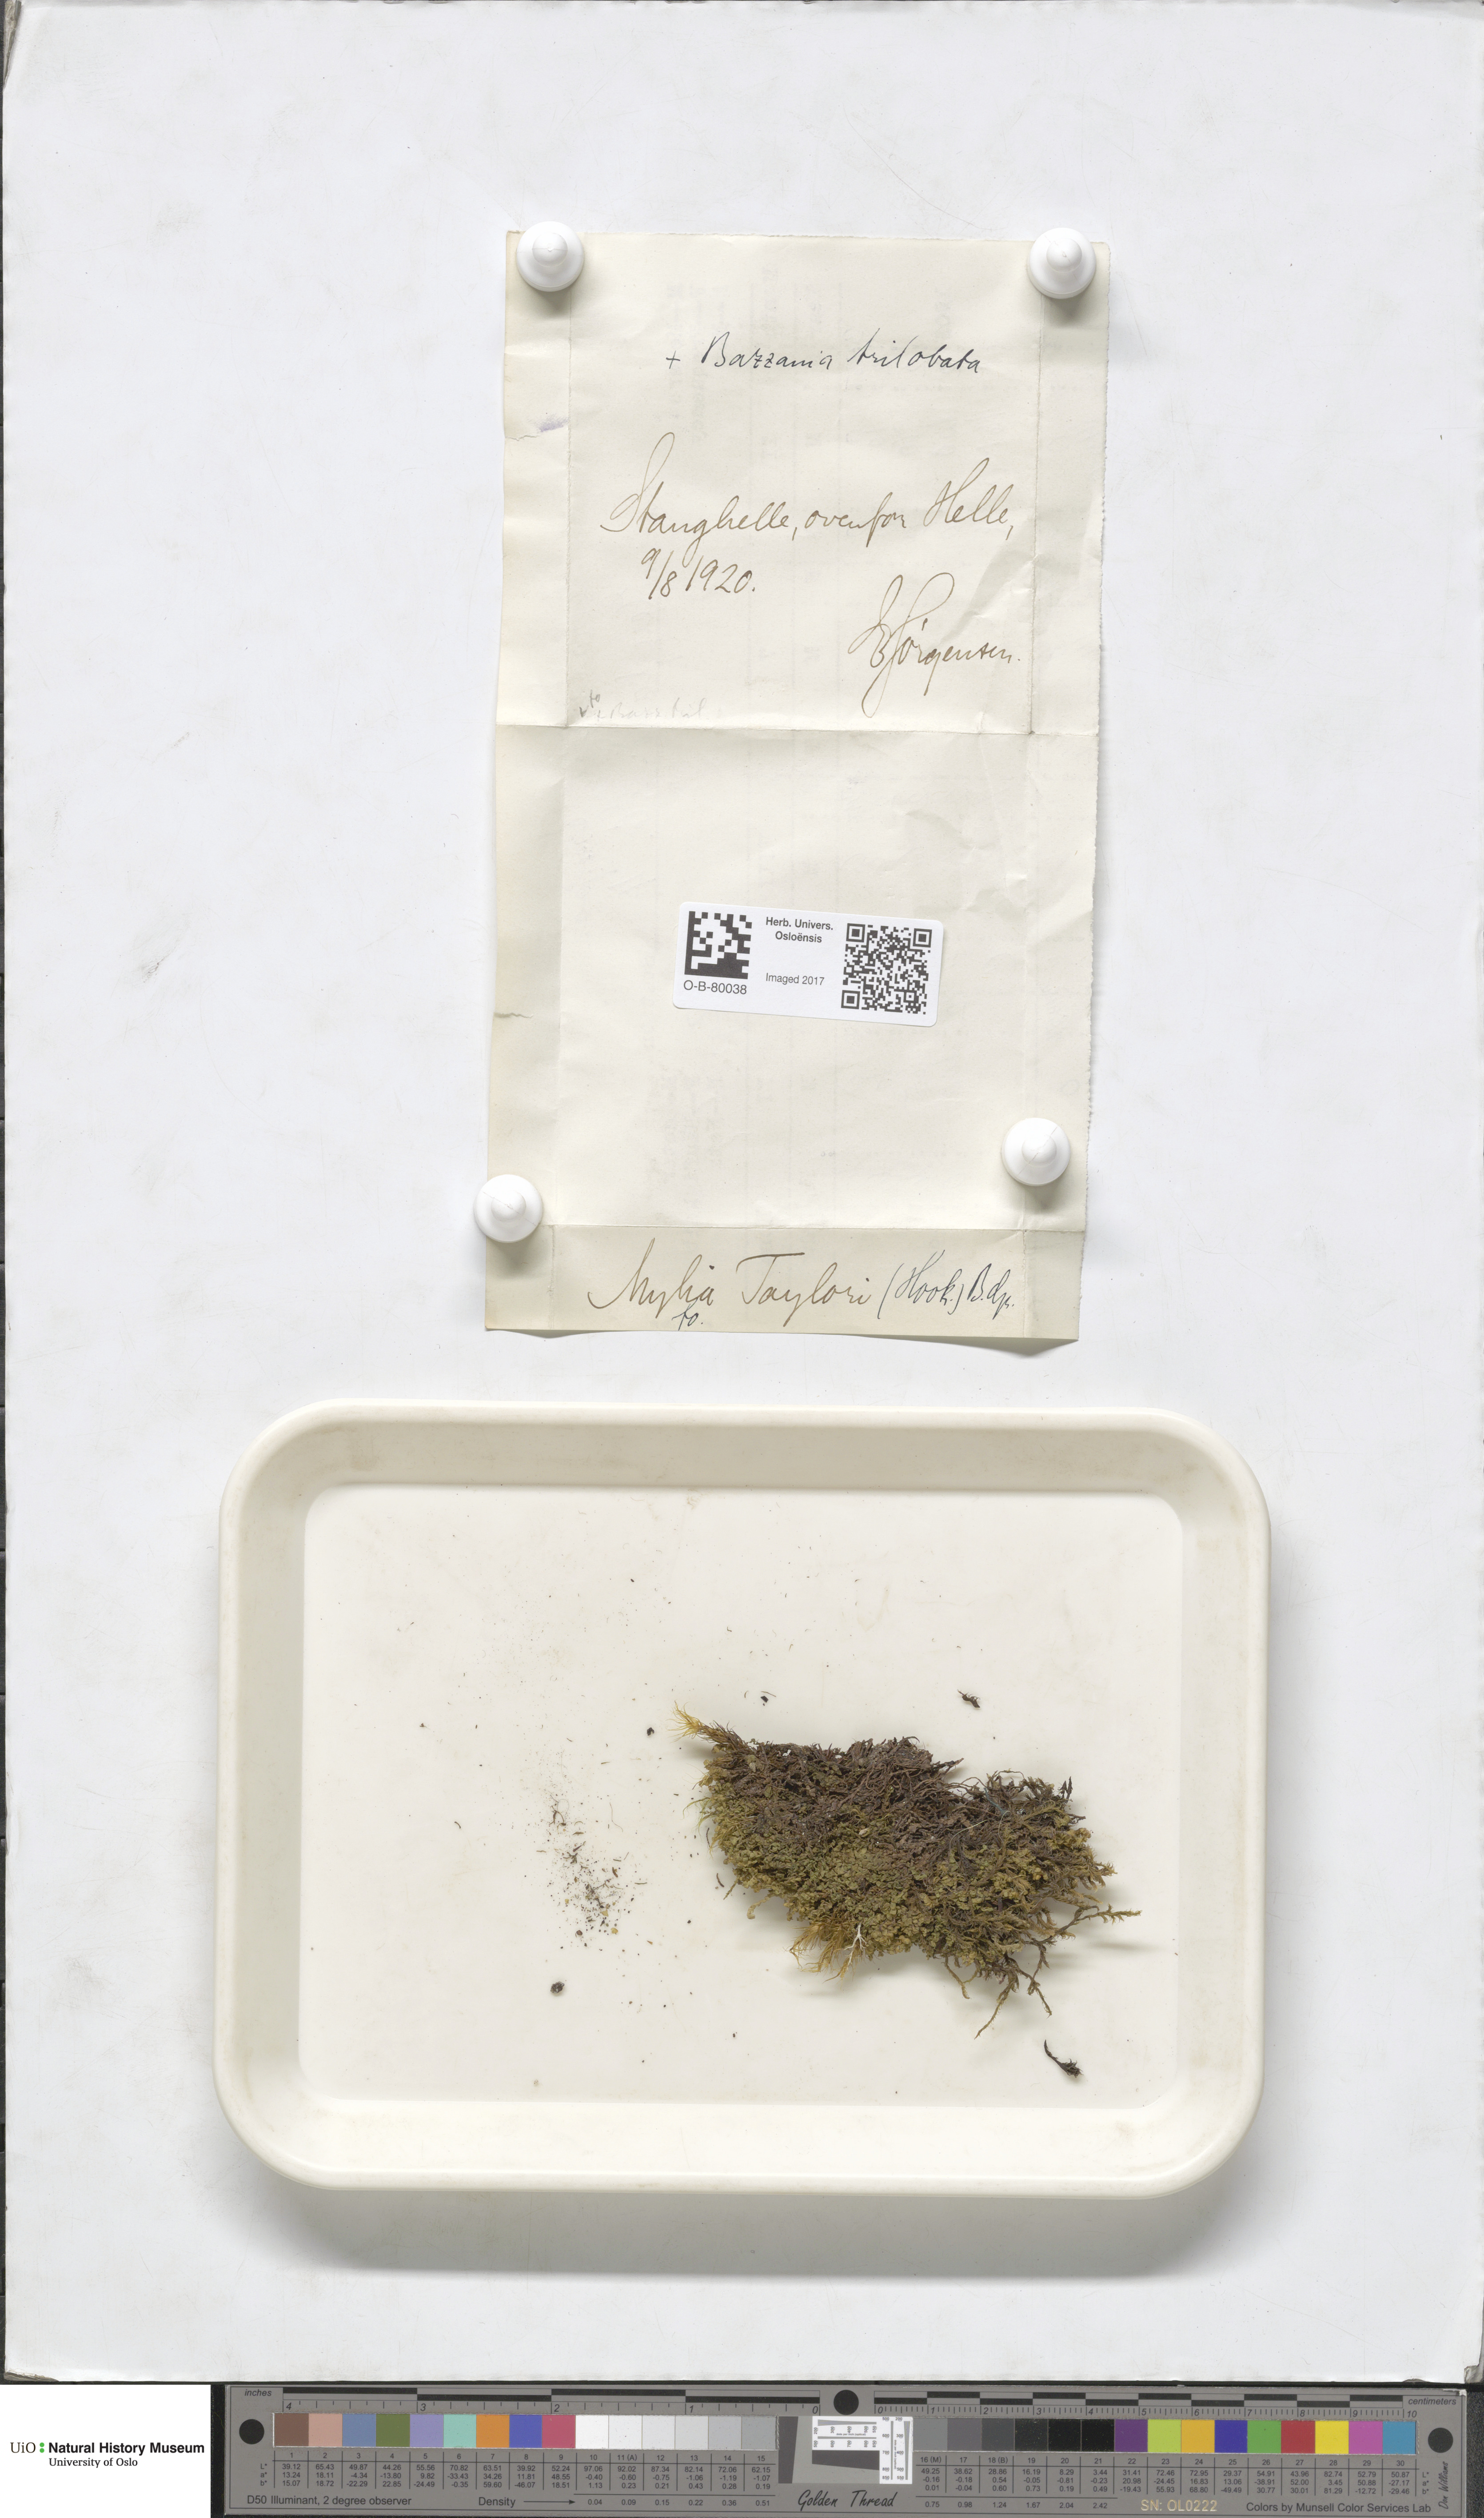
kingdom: Plantae
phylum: Marchantiophyta
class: Jungermanniopsida
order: Jungermanniales
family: Myliaceae
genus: Mylia
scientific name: Mylia taylorii
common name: Taylor s flapwort
